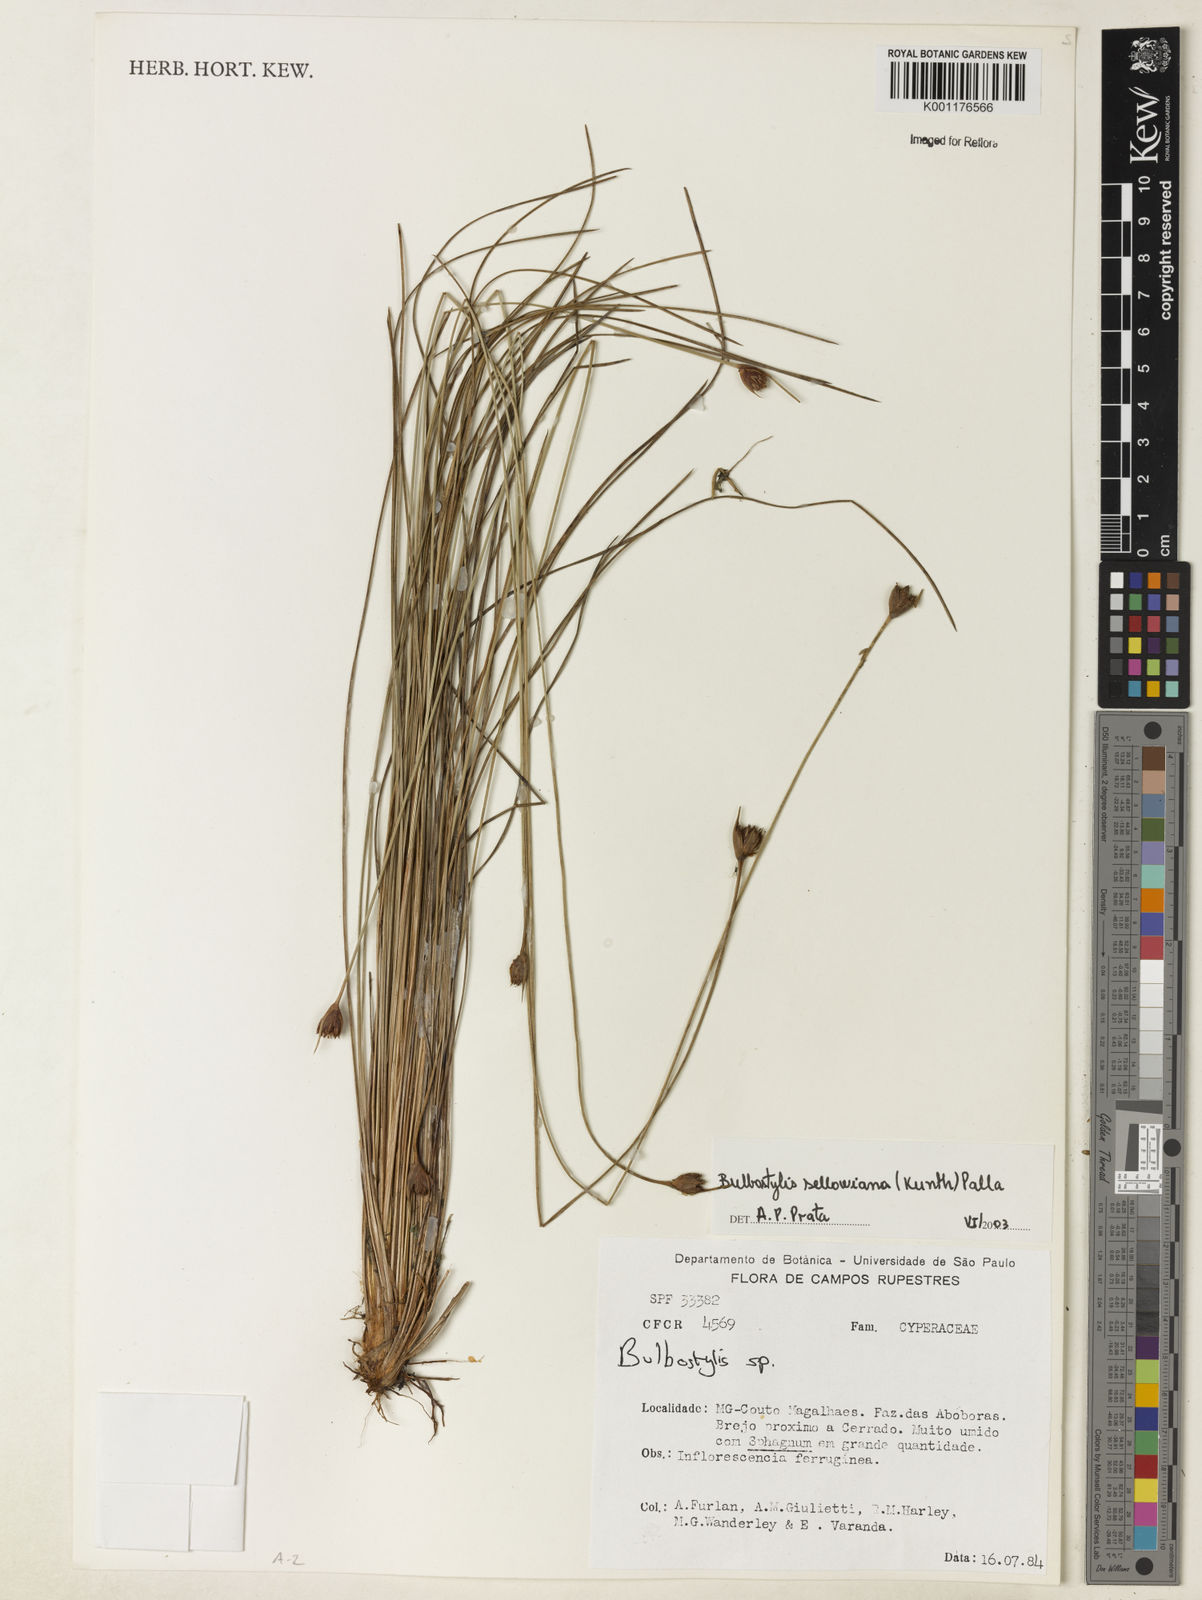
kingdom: Plantae
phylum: Tracheophyta
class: Liliopsida
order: Poales
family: Cyperaceae
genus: Bulbostylis
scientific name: Bulbostylis sellowiana
